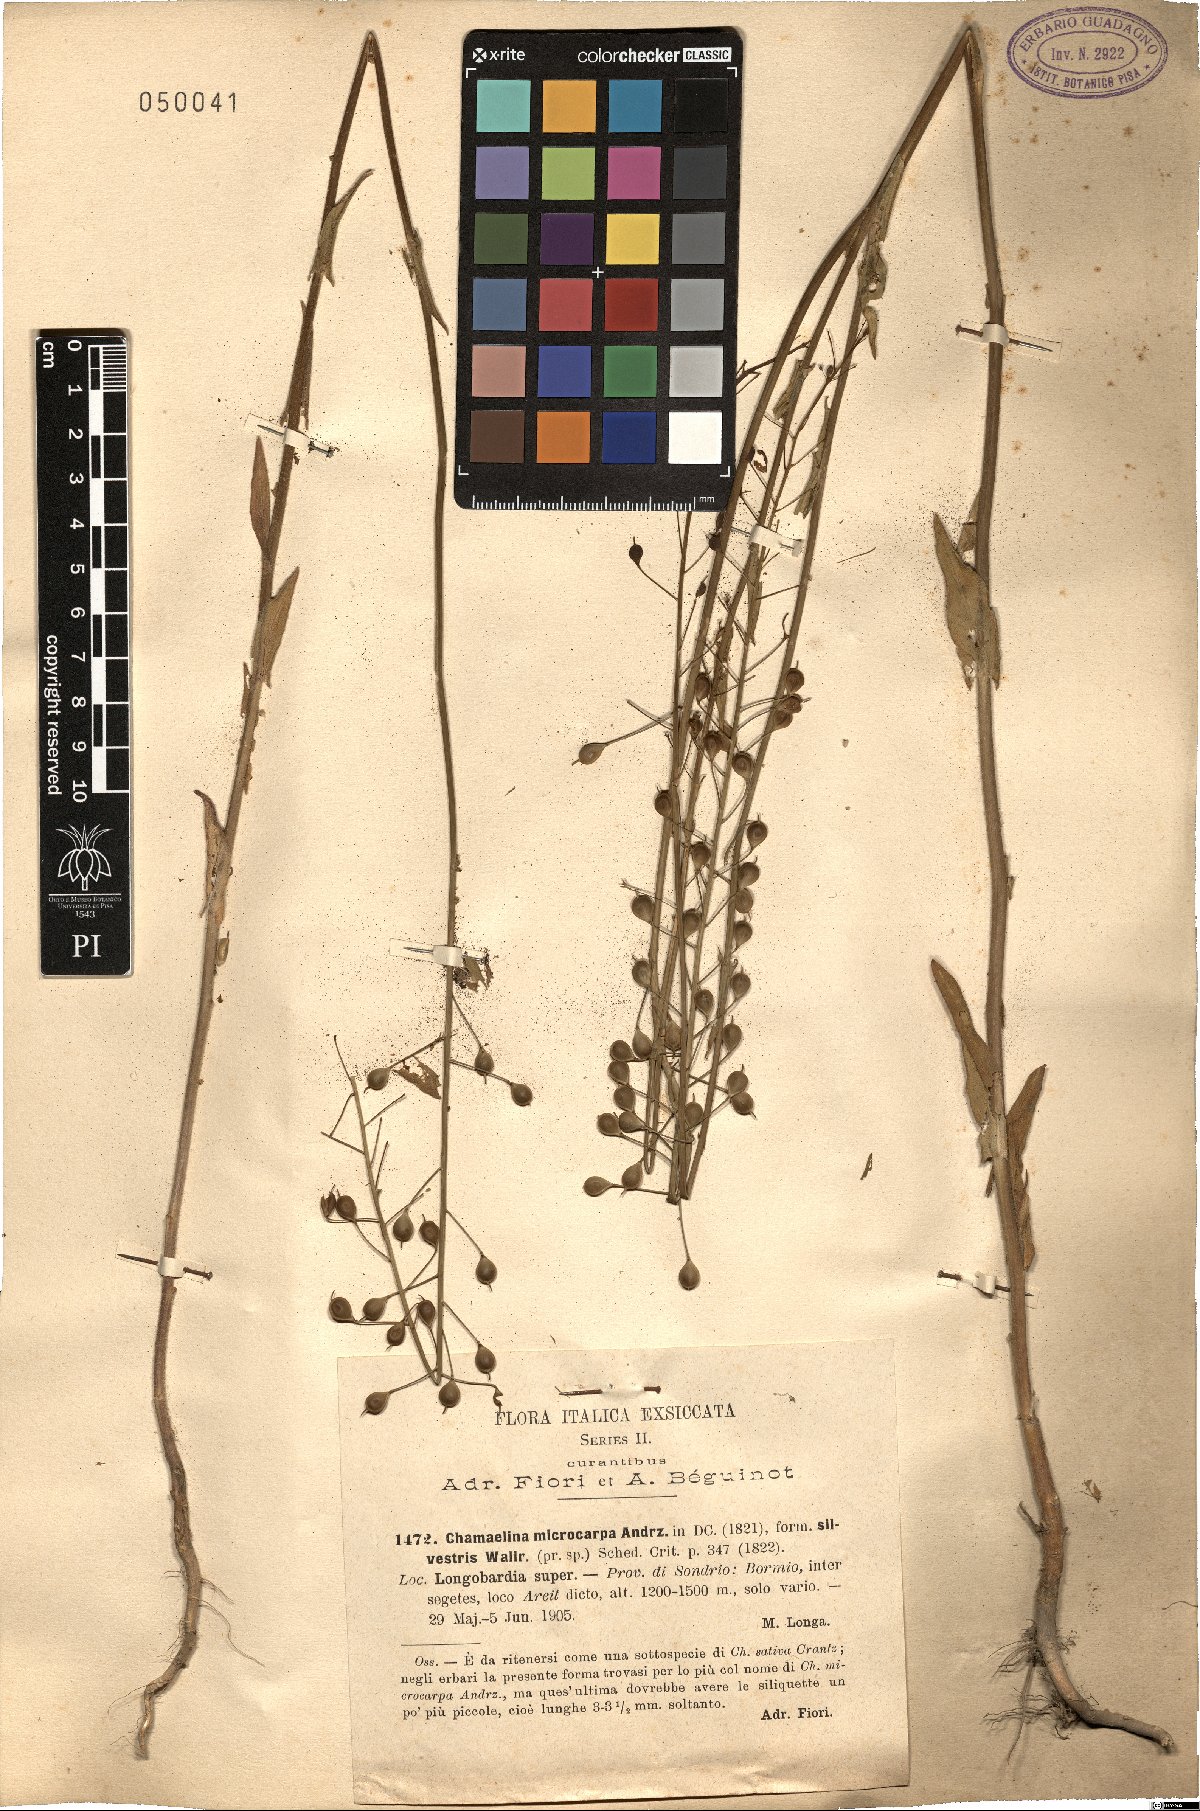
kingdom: Plantae
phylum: Tracheophyta
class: Magnoliopsida
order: Brassicales
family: Brassicaceae
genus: Camelina
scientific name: Camelina microcarpa
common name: Lesser gold-of-pleasure
